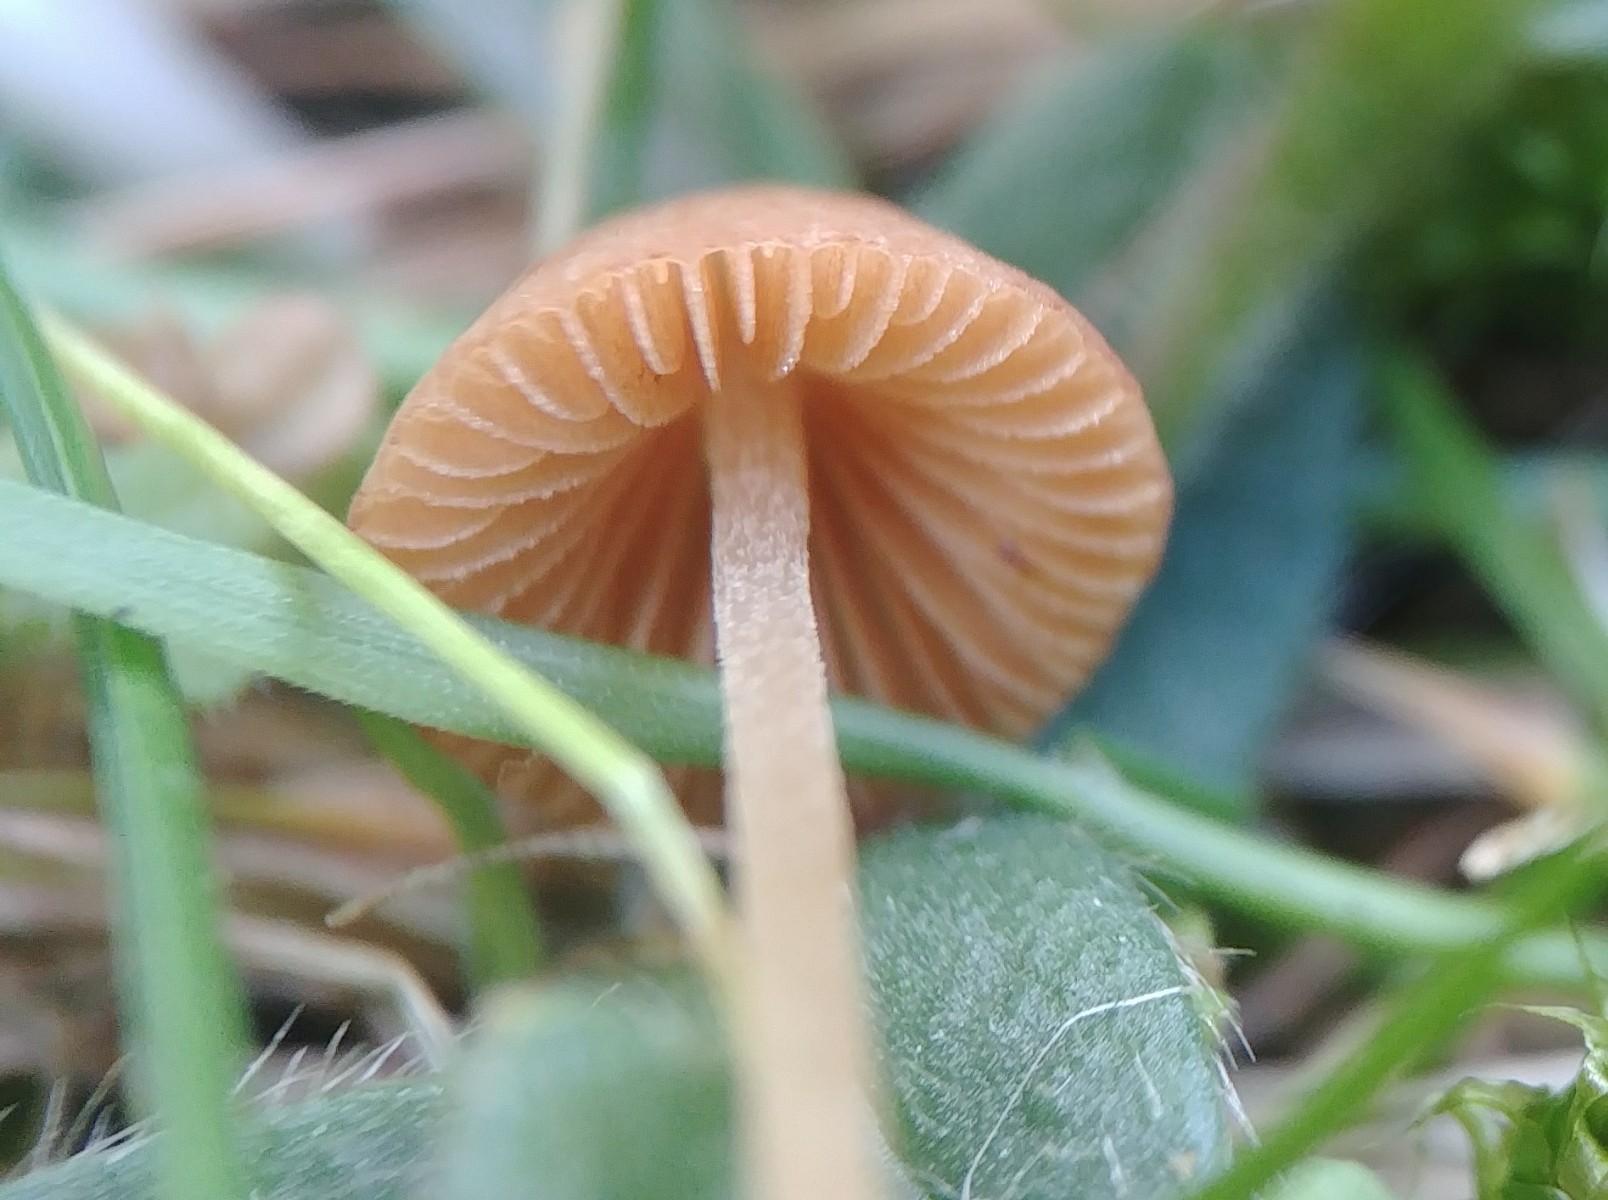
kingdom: Fungi
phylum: Basidiomycota
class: Agaricomycetes
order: Agaricales
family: Bolbitiaceae
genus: Conocybe
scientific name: Conocybe
